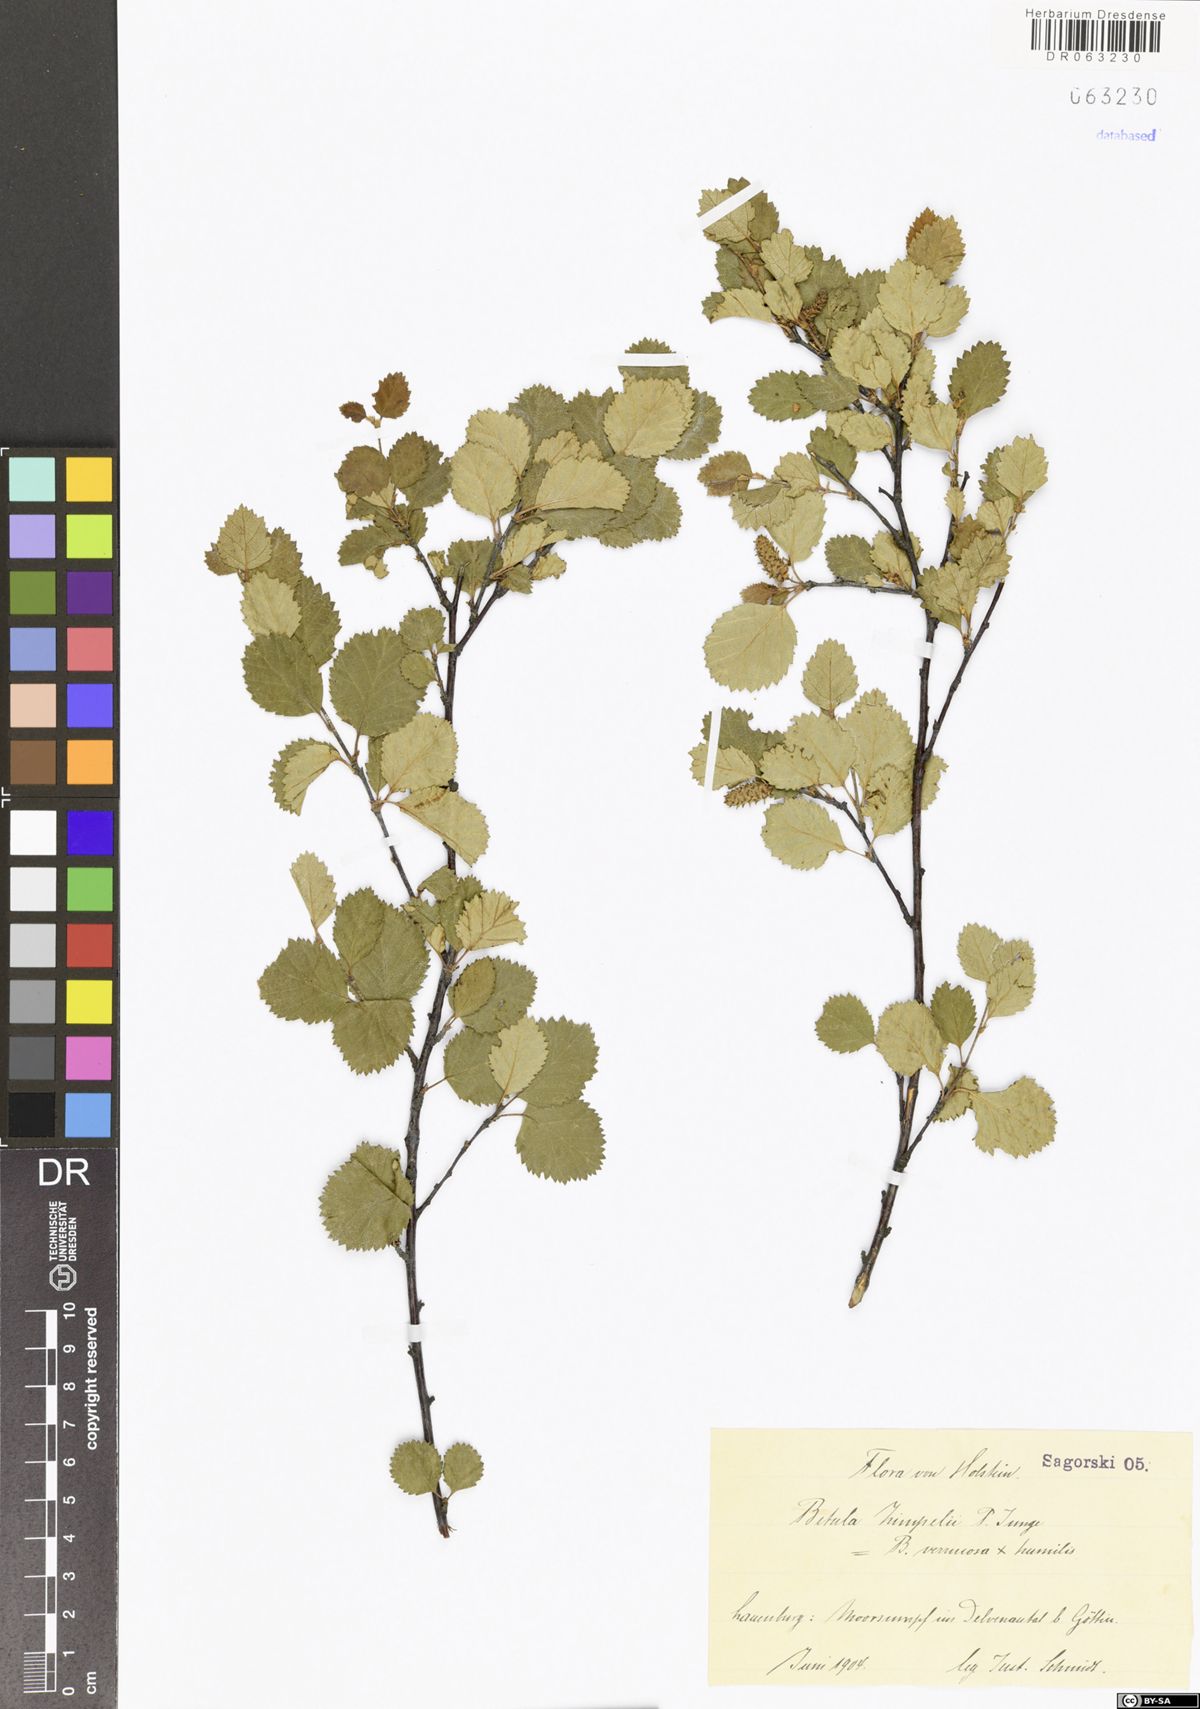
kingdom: Plantae
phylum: Tracheophyta
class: Magnoliopsida
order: Fagales
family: Betulaceae
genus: Betula
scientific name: Betula zimpelii
